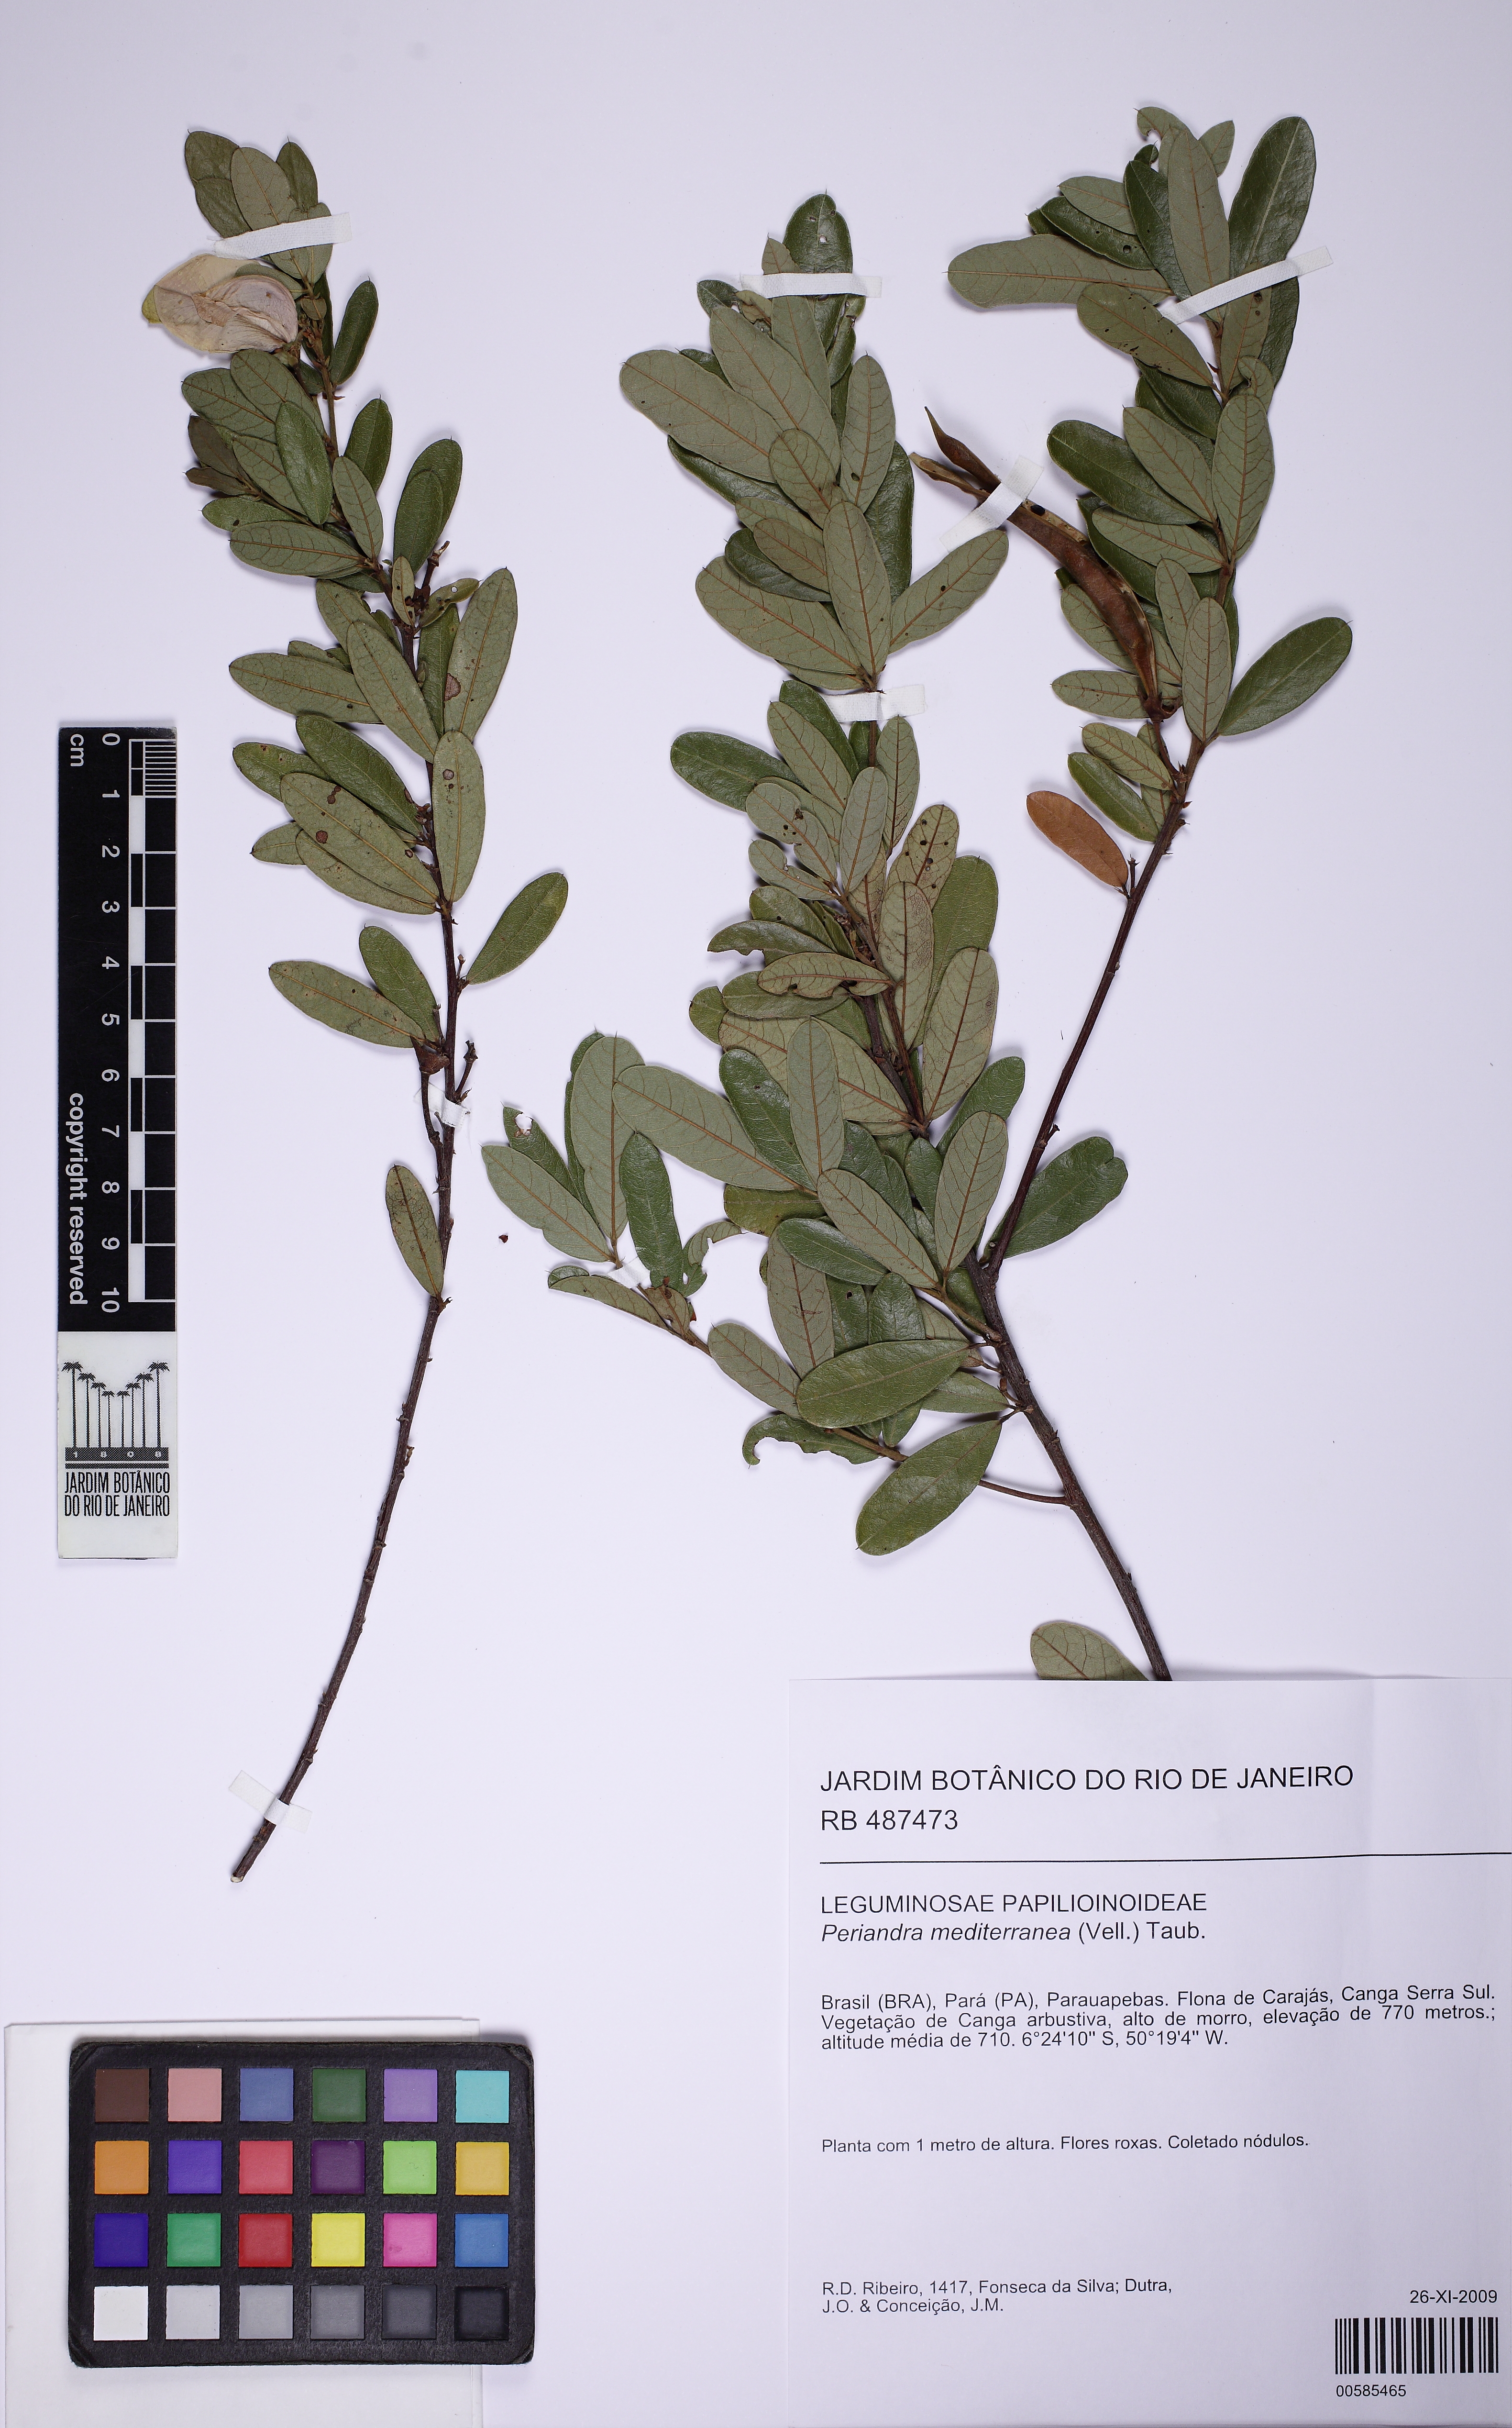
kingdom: Plantae
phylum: Tracheophyta
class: Magnoliopsida
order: Fabales
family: Fabaceae
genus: Periandra
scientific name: Periandra mediterranea
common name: Brazilian licorice
